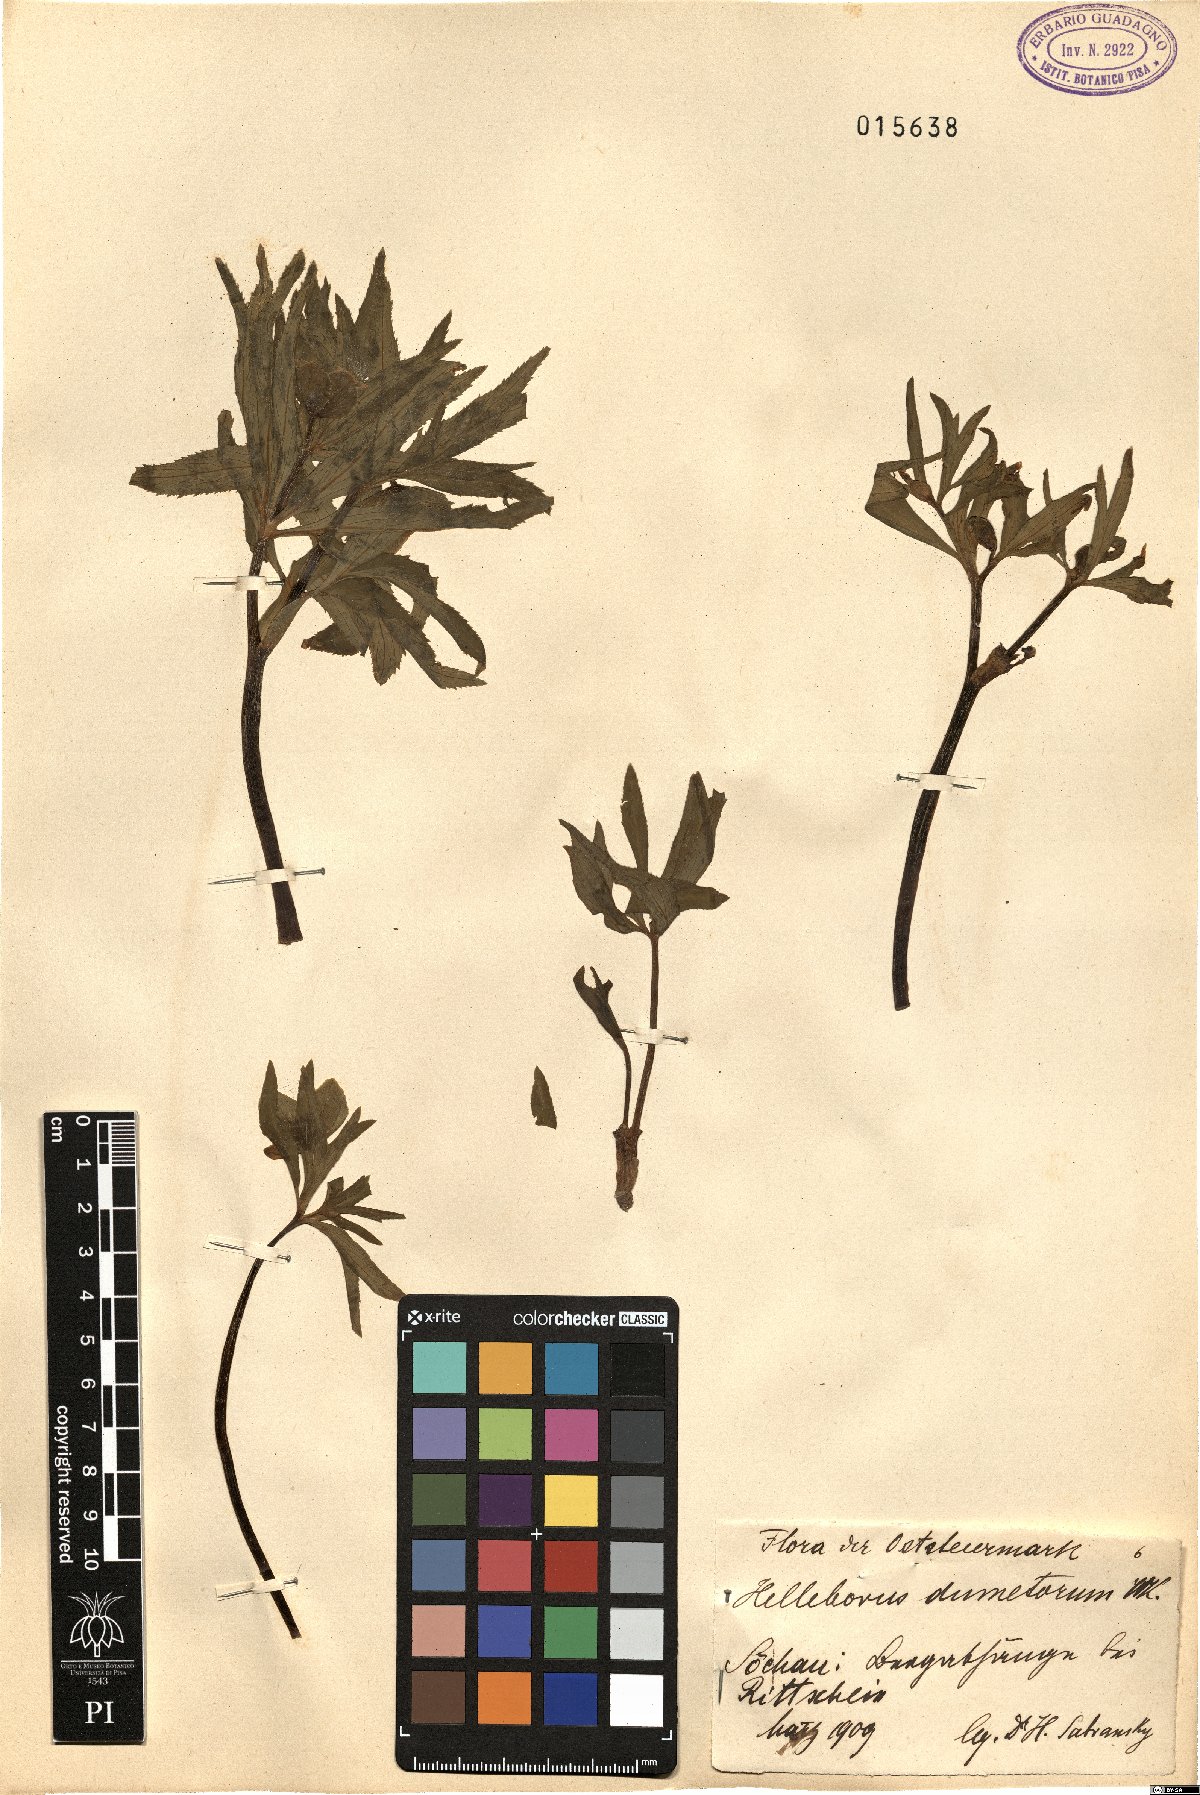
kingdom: Plantae
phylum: Tracheophyta
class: Magnoliopsida
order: Ranunculales
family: Ranunculaceae
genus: Helleborus
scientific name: Helleborus dumetorum
